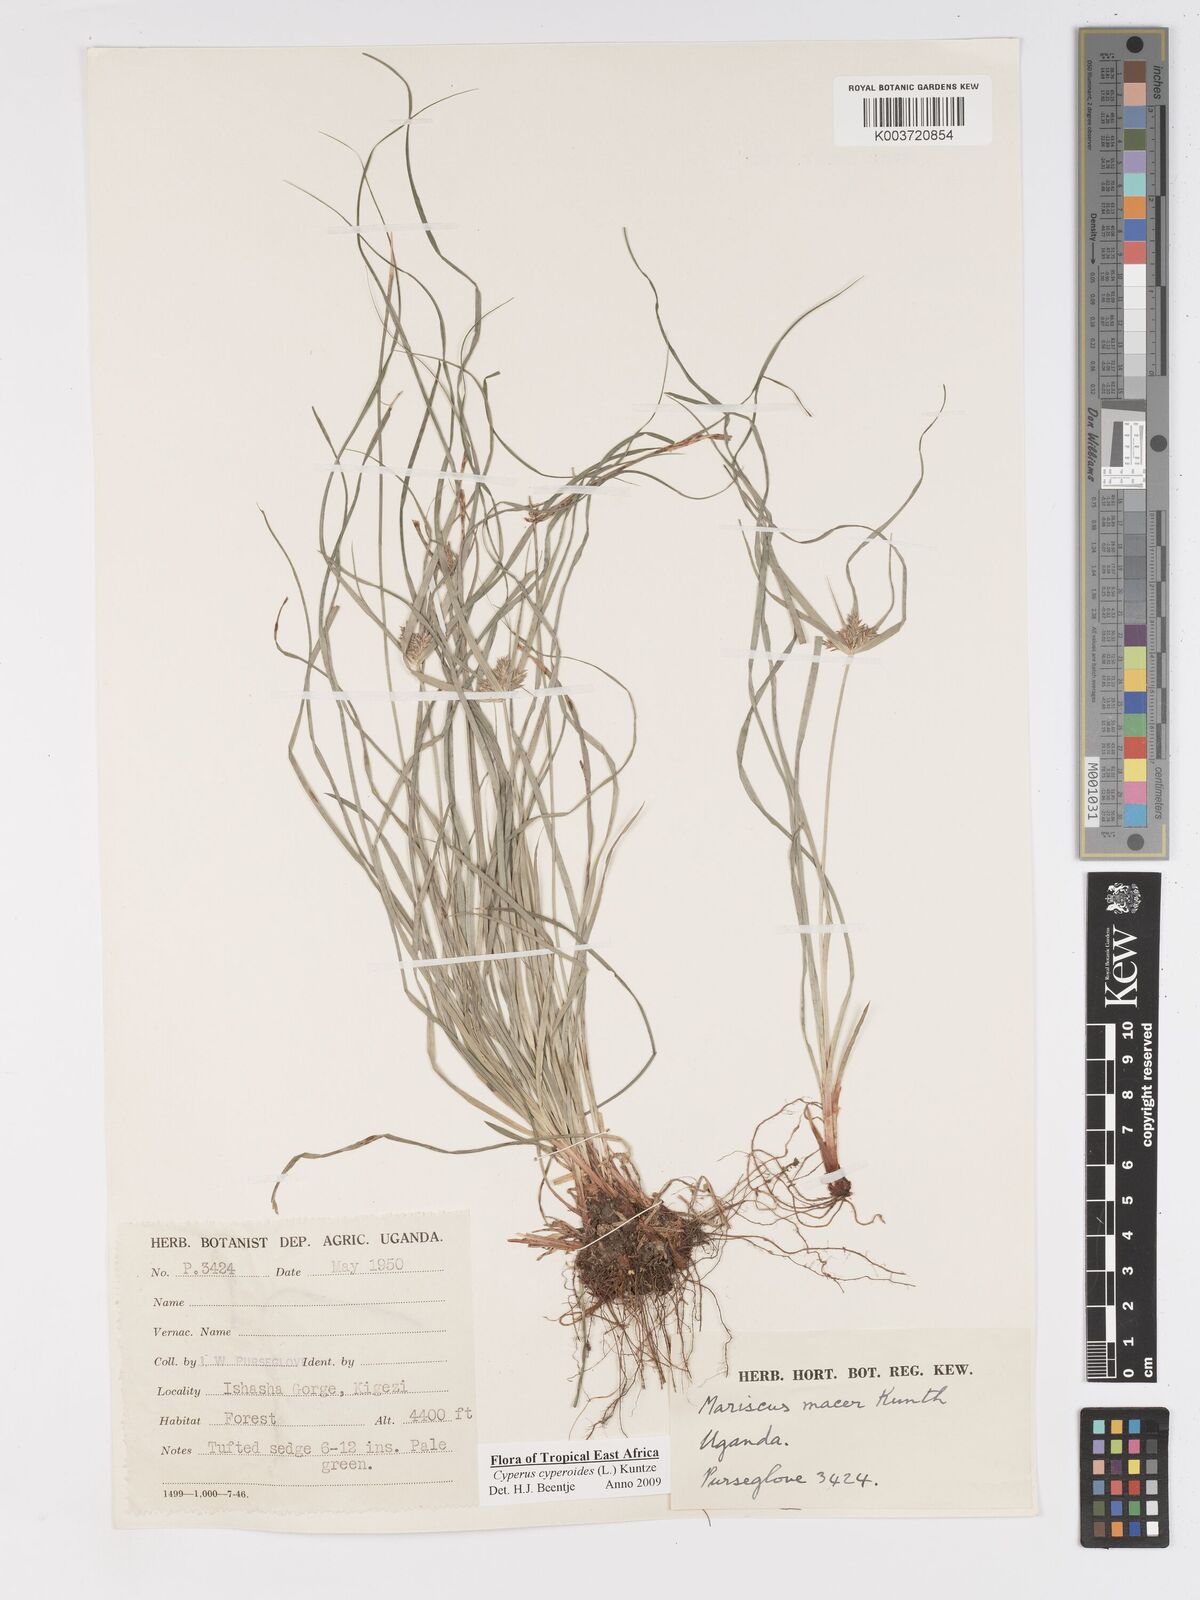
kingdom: Plantae
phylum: Tracheophyta
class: Liliopsida
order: Poales
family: Cyperaceae
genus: Cyperus
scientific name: Cyperus pseudoflavus
